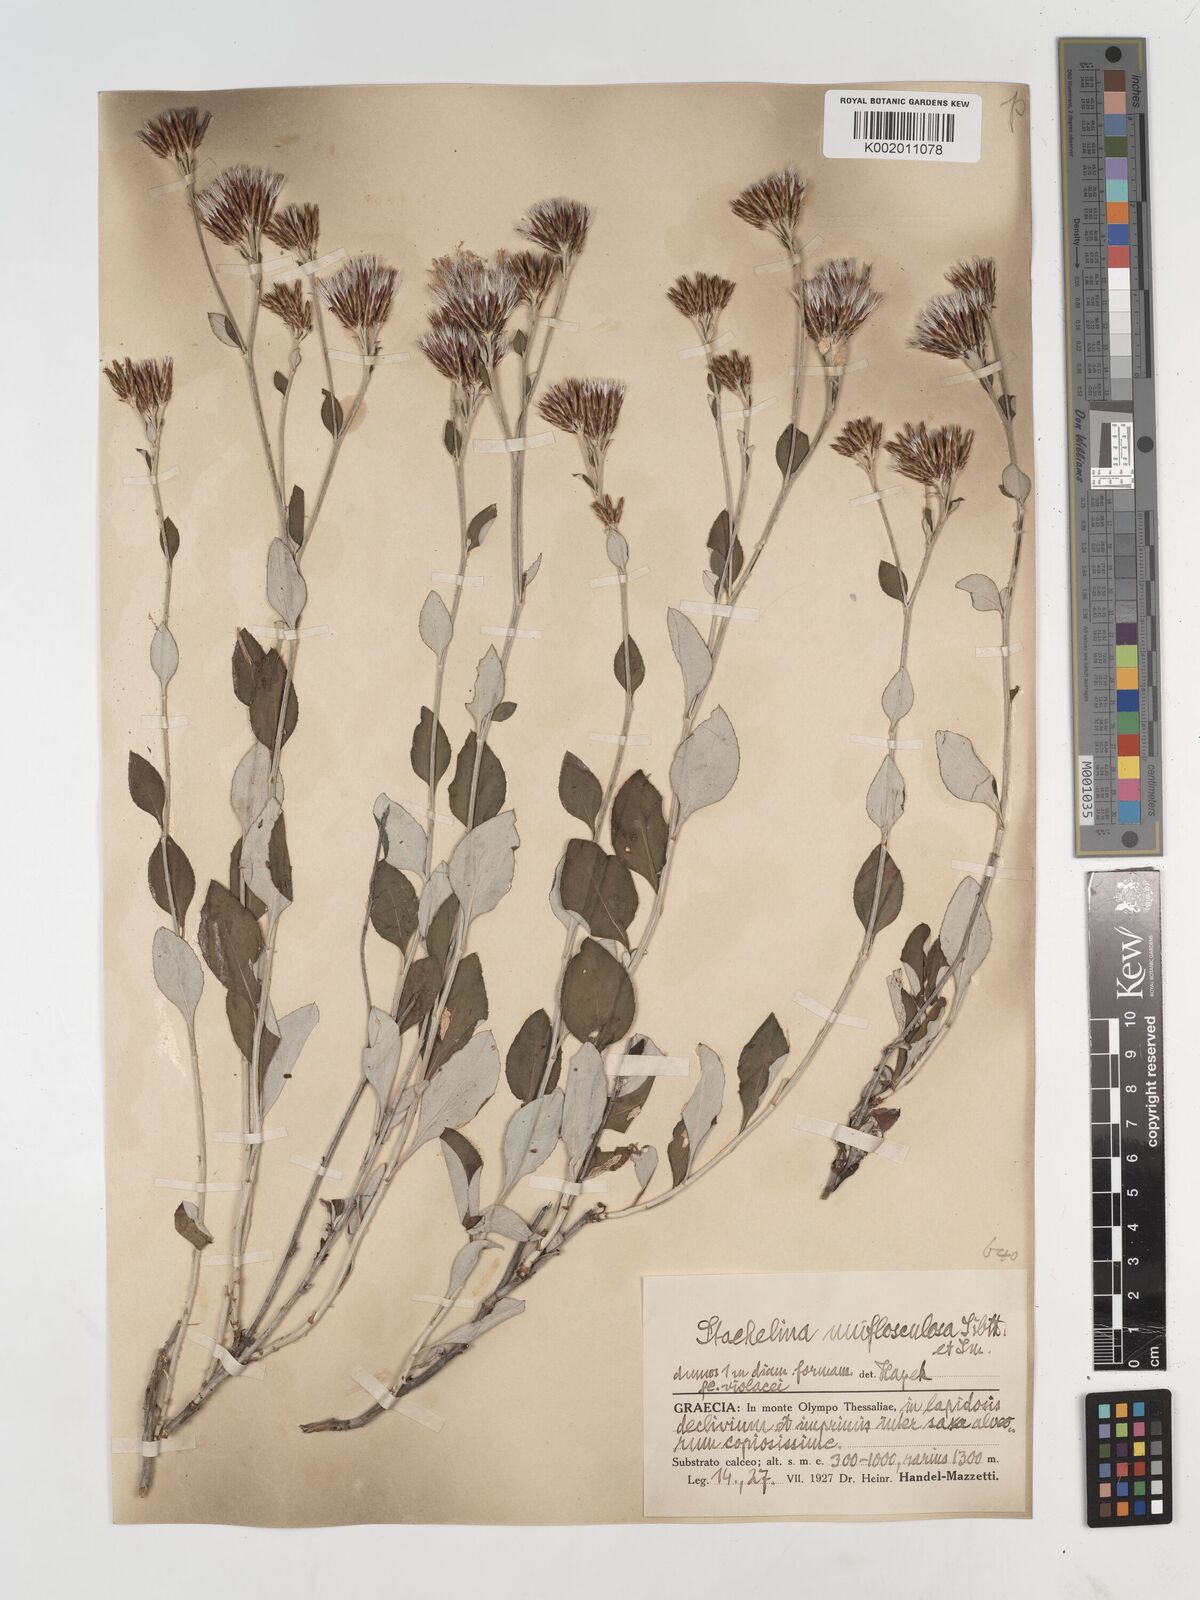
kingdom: Plantae
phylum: Tracheophyta
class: Magnoliopsida
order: Asterales
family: Asteraceae
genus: Staehelina
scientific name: Staehelina uniflosculosa
